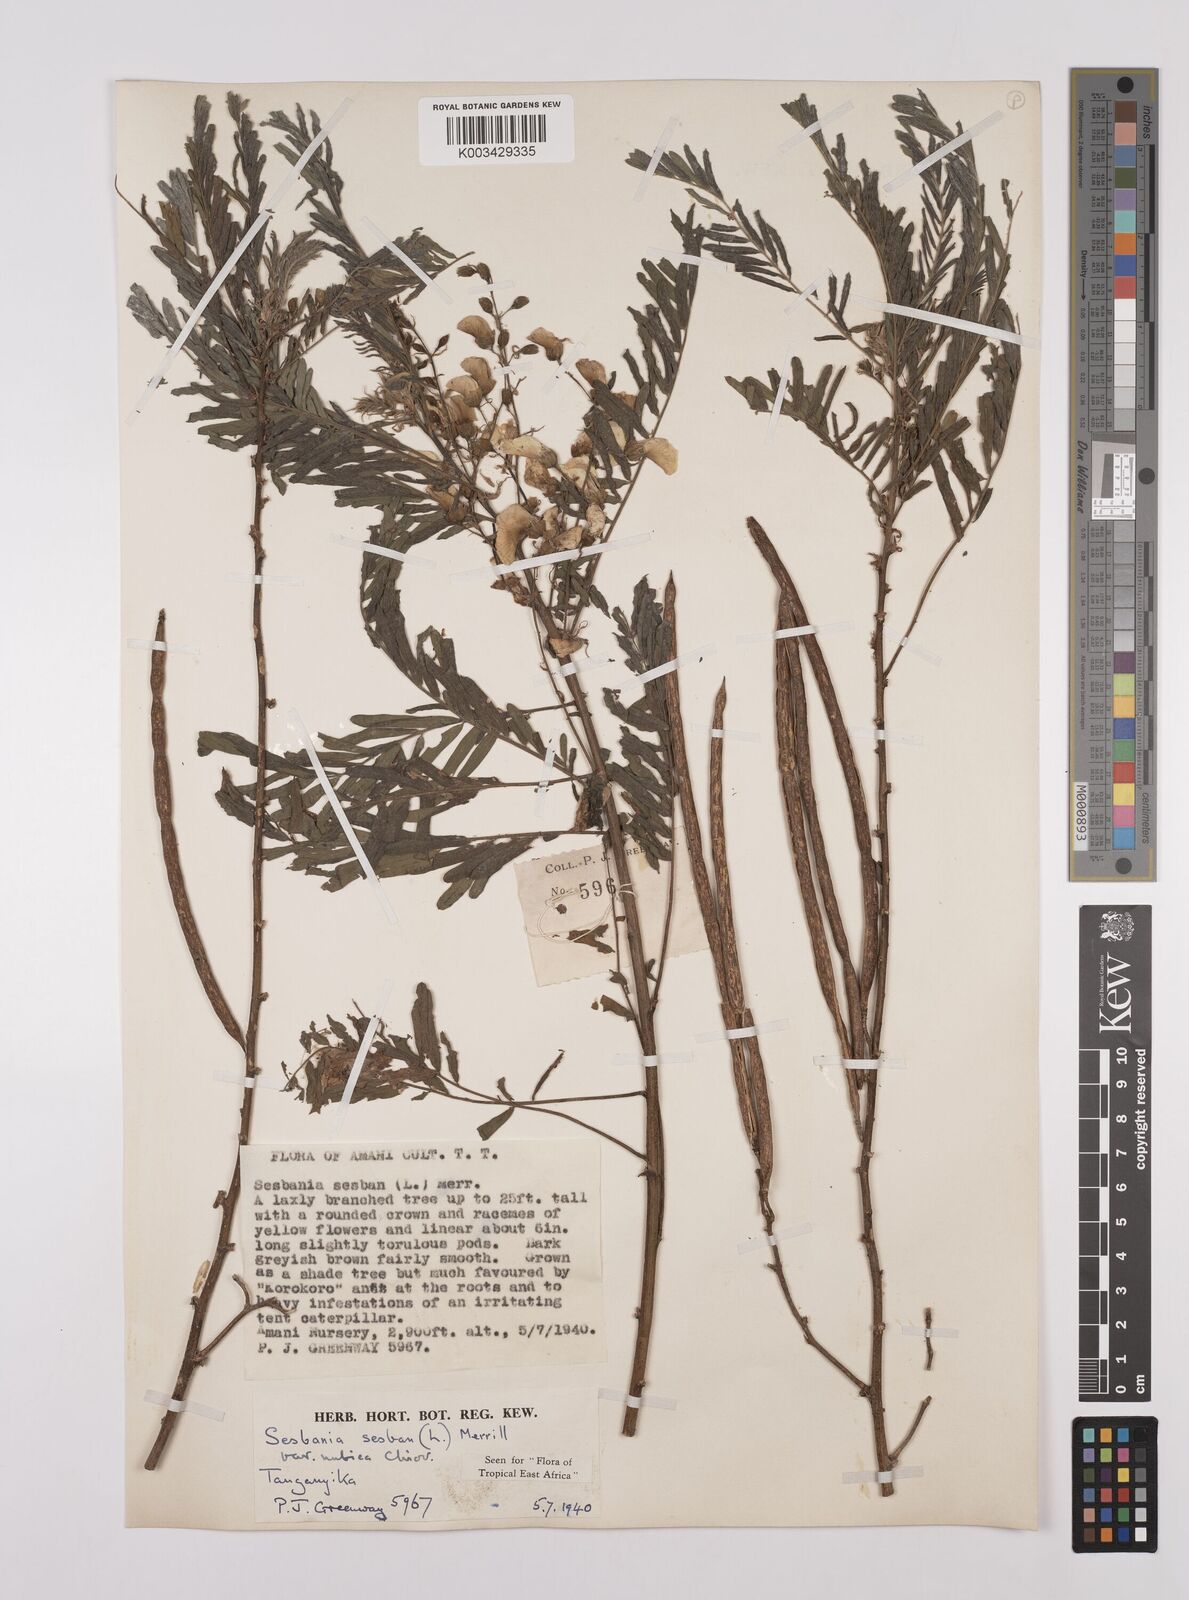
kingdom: Plantae
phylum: Tracheophyta
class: Magnoliopsida
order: Fabales
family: Fabaceae
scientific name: Fabaceae
